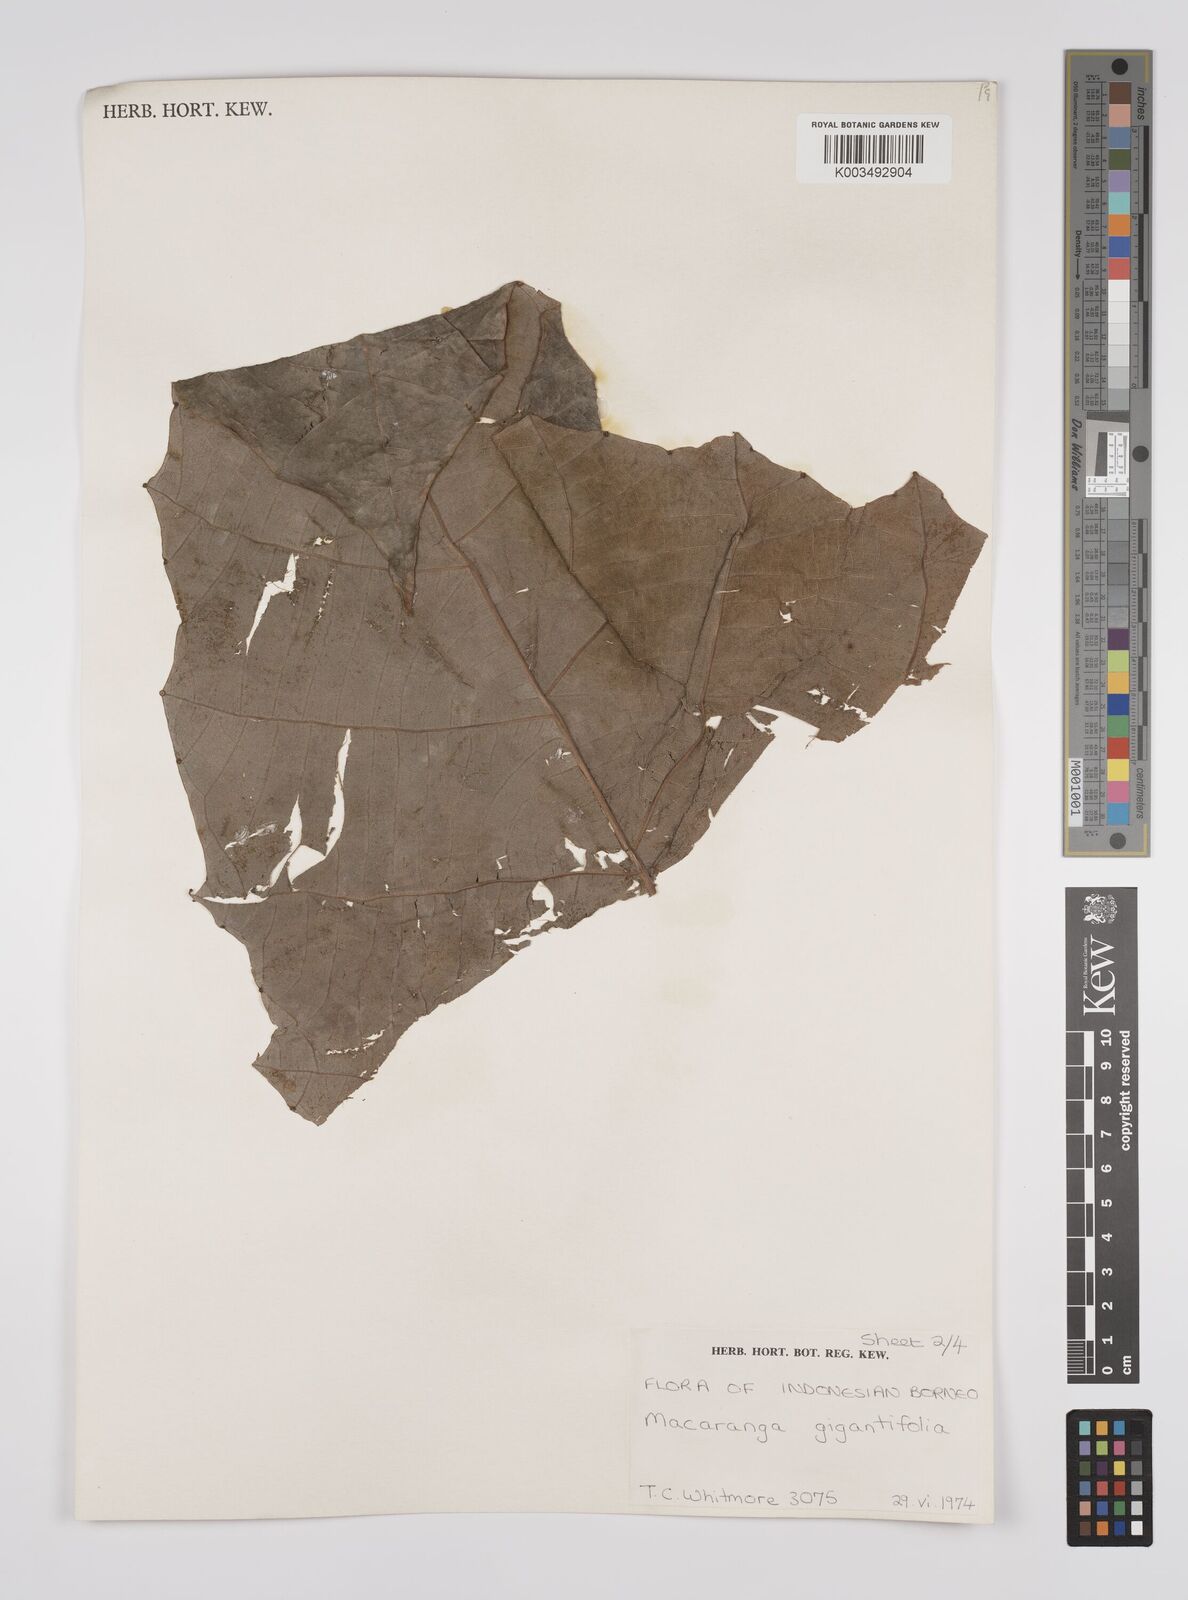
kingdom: Plantae
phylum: Tracheophyta
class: Magnoliopsida
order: Malpighiales
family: Euphorbiaceae
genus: Macaranga
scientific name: Macaranga gigantea
